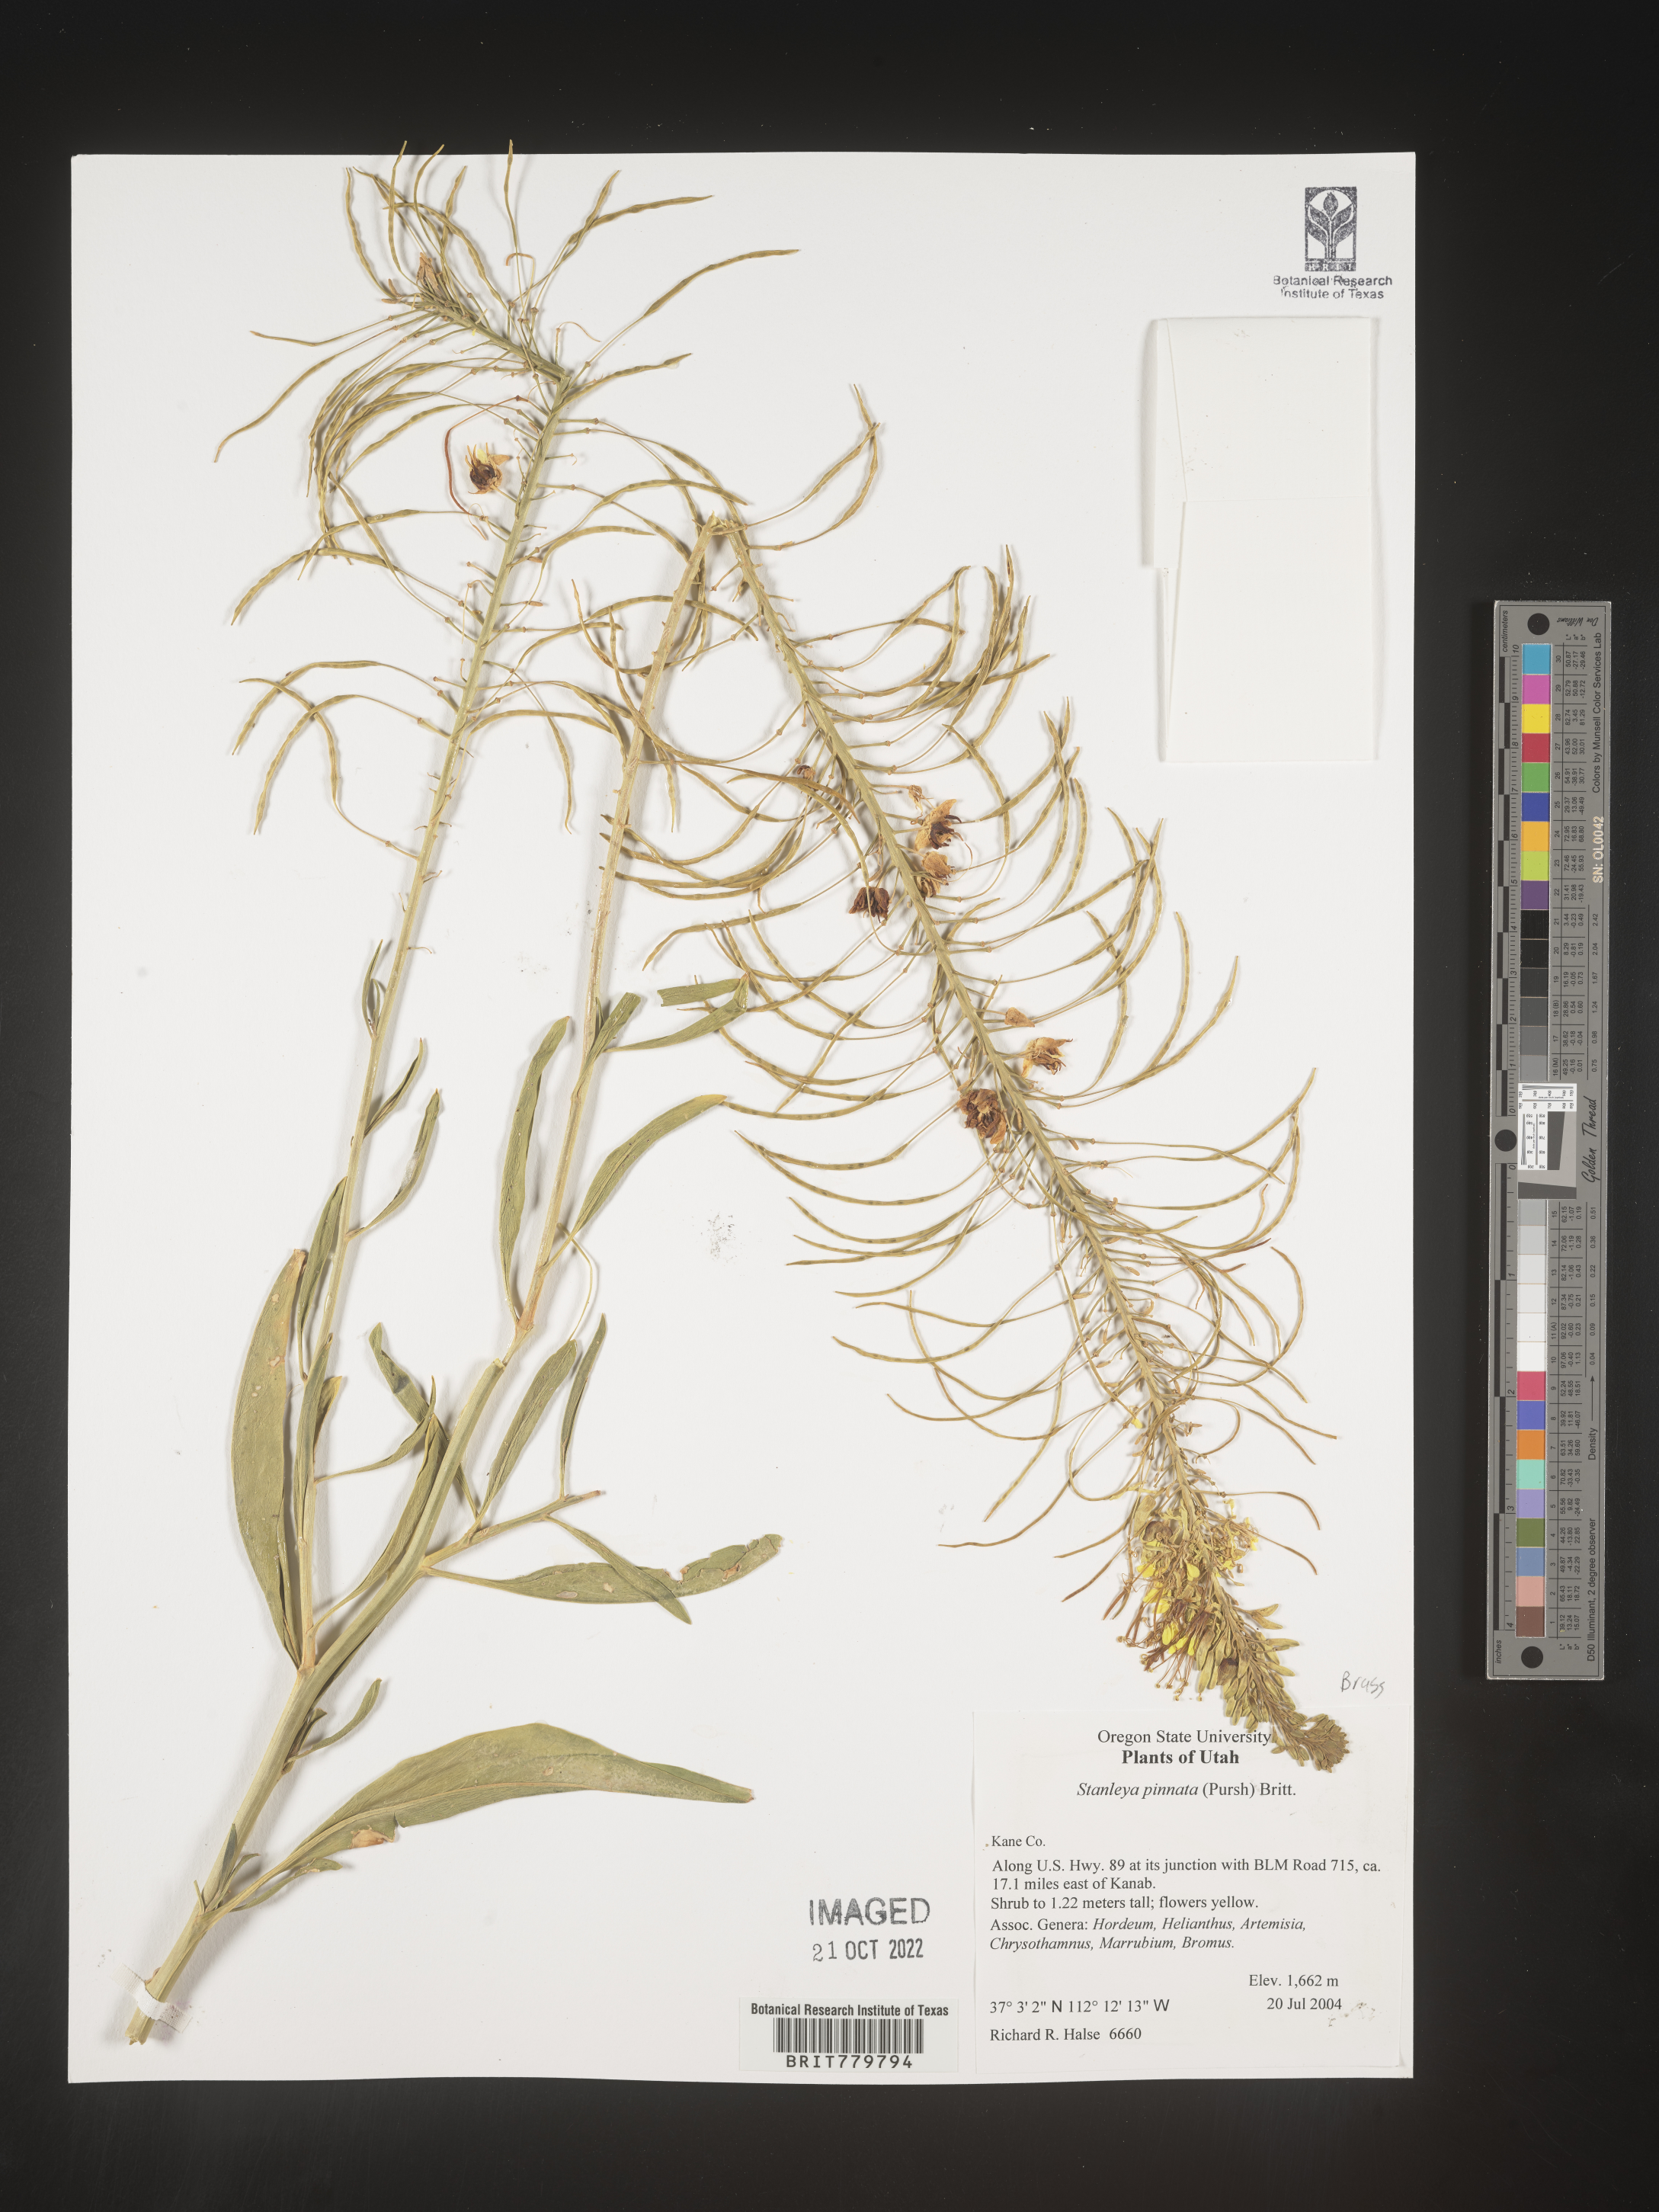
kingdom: Plantae
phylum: Tracheophyta
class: Magnoliopsida
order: Brassicales
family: Brassicaceae
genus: Stanleya
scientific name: Stanleya pinnata
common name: Prince's-plume
